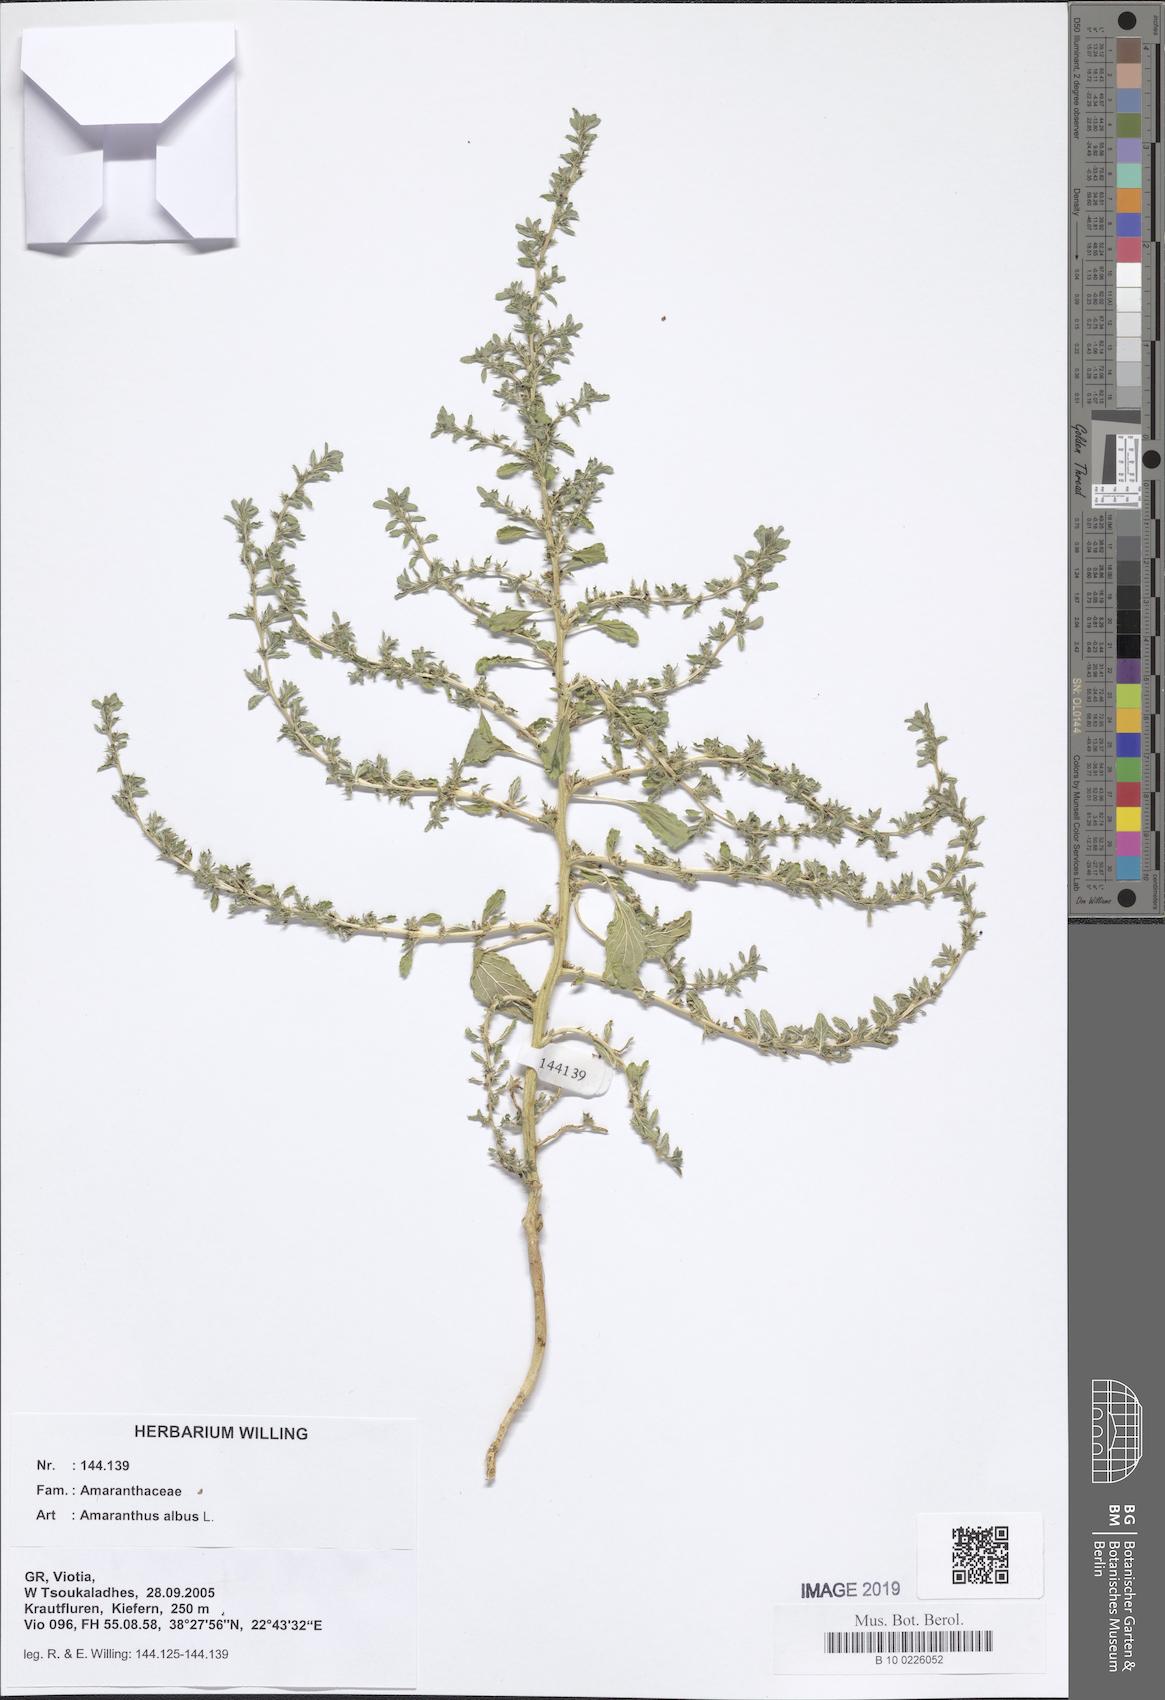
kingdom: Plantae
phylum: Tracheophyta
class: Magnoliopsida
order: Caryophyllales
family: Amaranthaceae
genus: Amaranthus
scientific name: Amaranthus albus
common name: White pigweed
